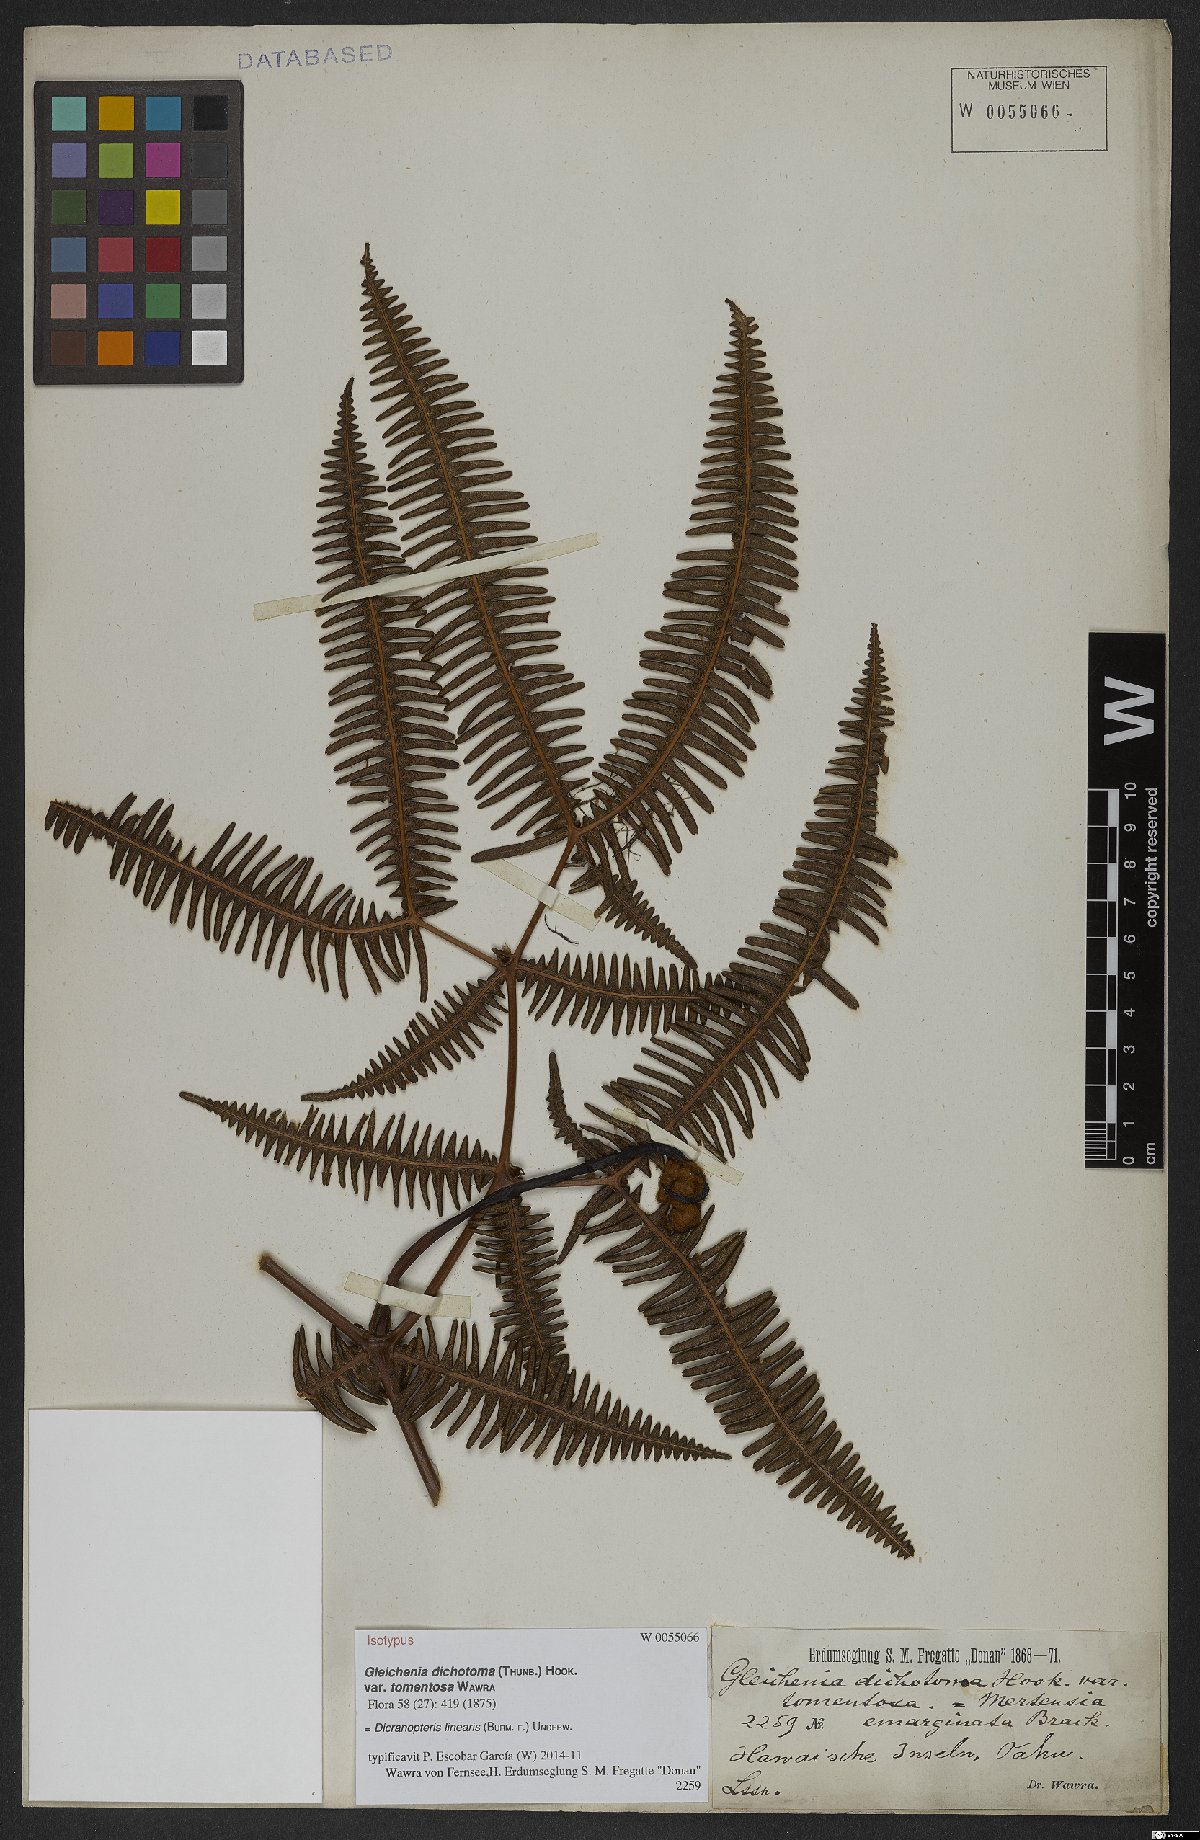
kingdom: Plantae
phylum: Tracheophyta
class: Polypodiopsida
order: Gleicheniales
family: Gleicheniaceae
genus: Dicranopteris
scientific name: Dicranopteris linearis
